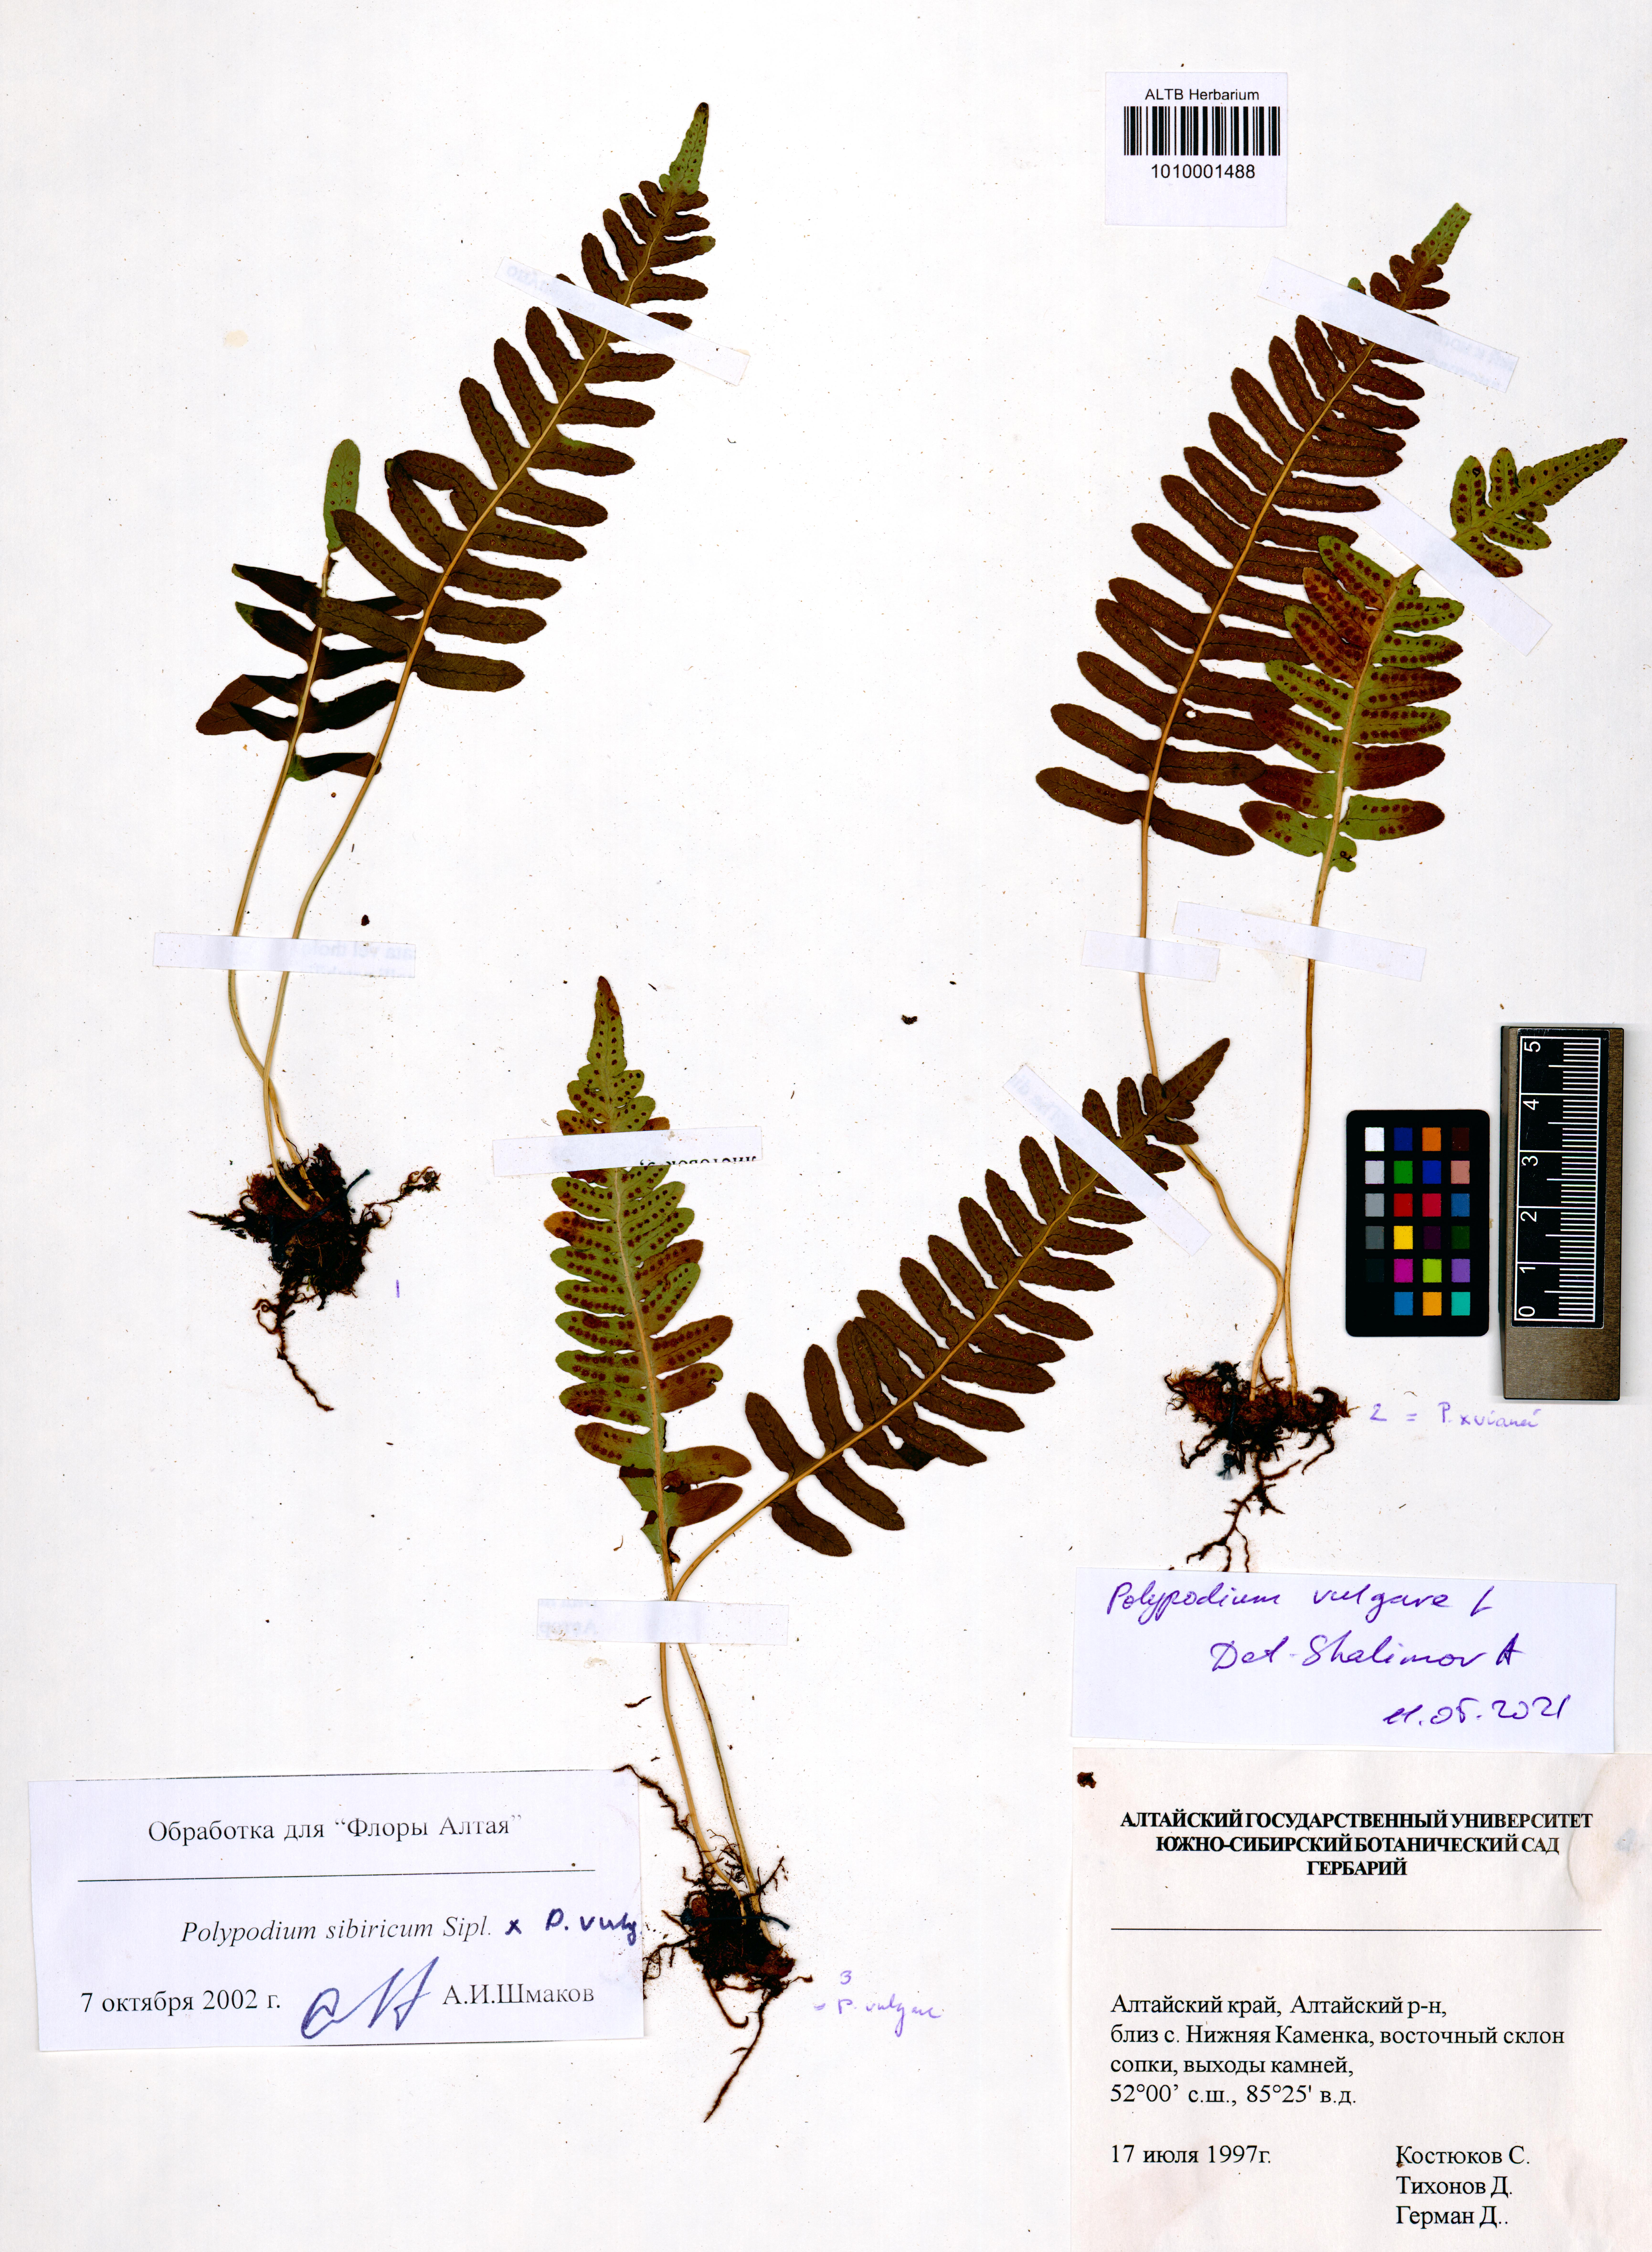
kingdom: Plantae
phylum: Tracheophyta
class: Polypodiopsida
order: Polypodiales
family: Polypodiaceae
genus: Polypodium
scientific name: Polypodium sibiricum
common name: Siberian polypody
